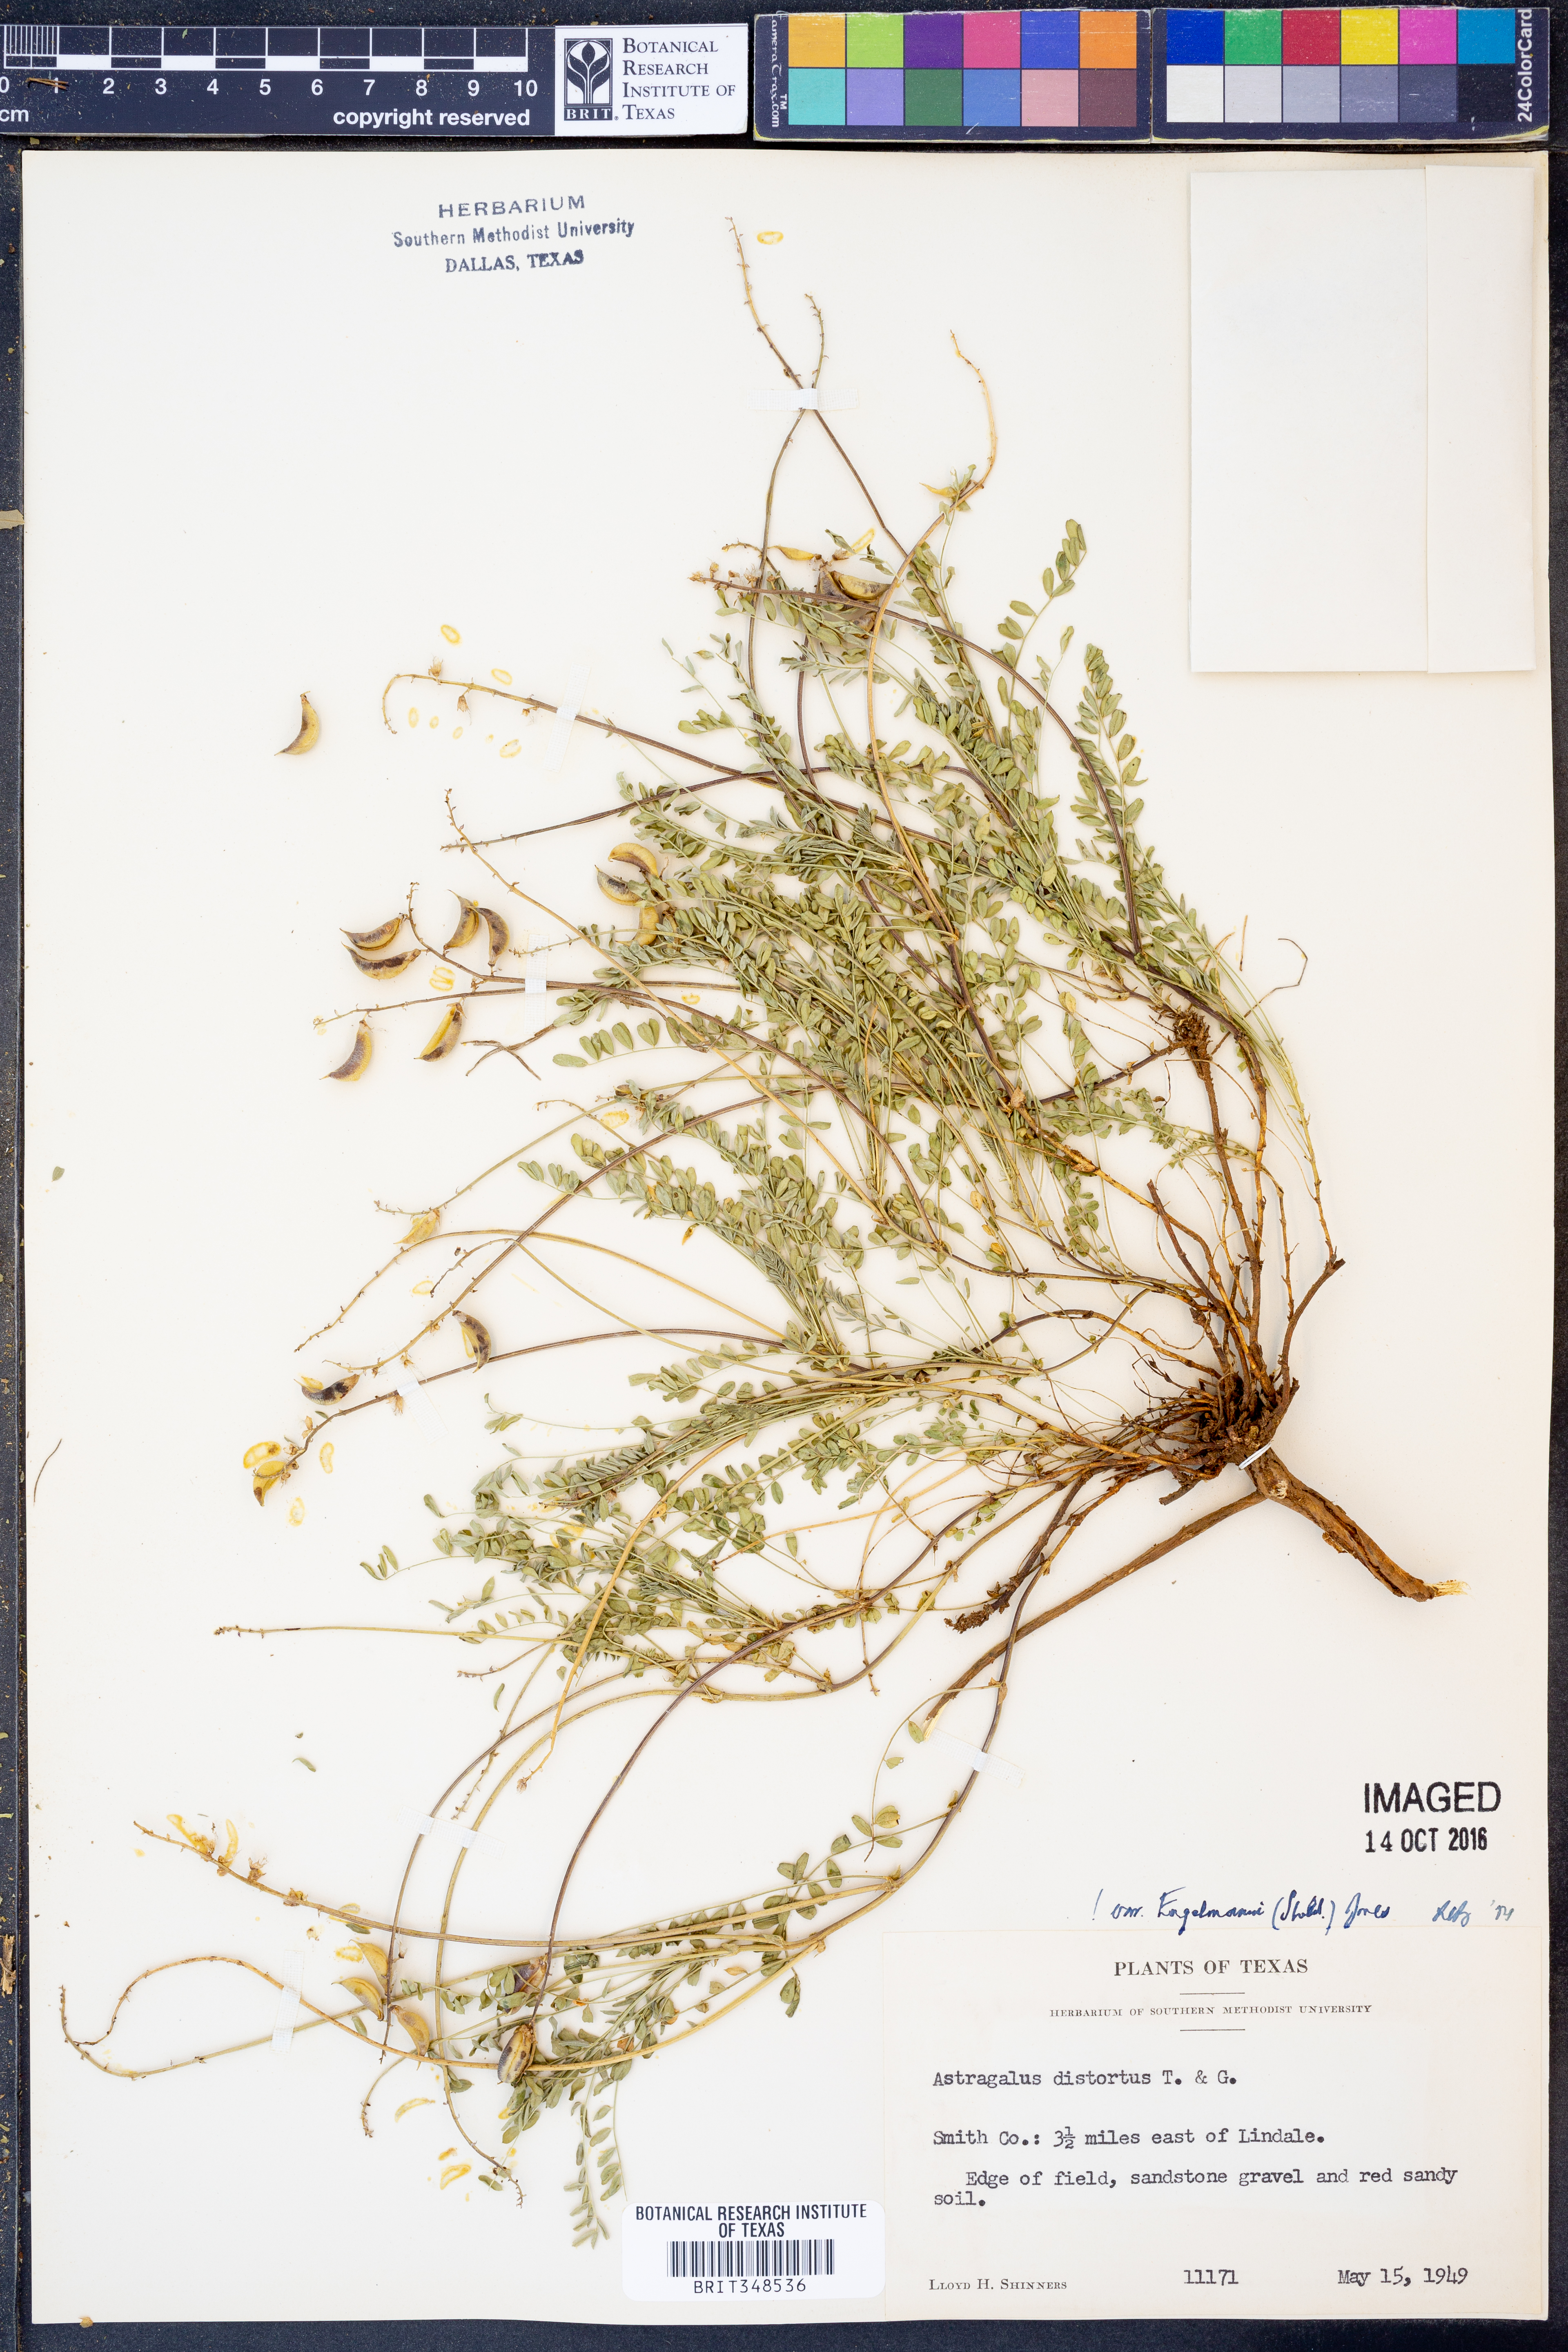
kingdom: Plantae
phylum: Tracheophyta
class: Magnoliopsida
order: Fabales
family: Fabaceae
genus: Astragalus
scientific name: Astragalus distortus
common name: Ozark milk-vetch
